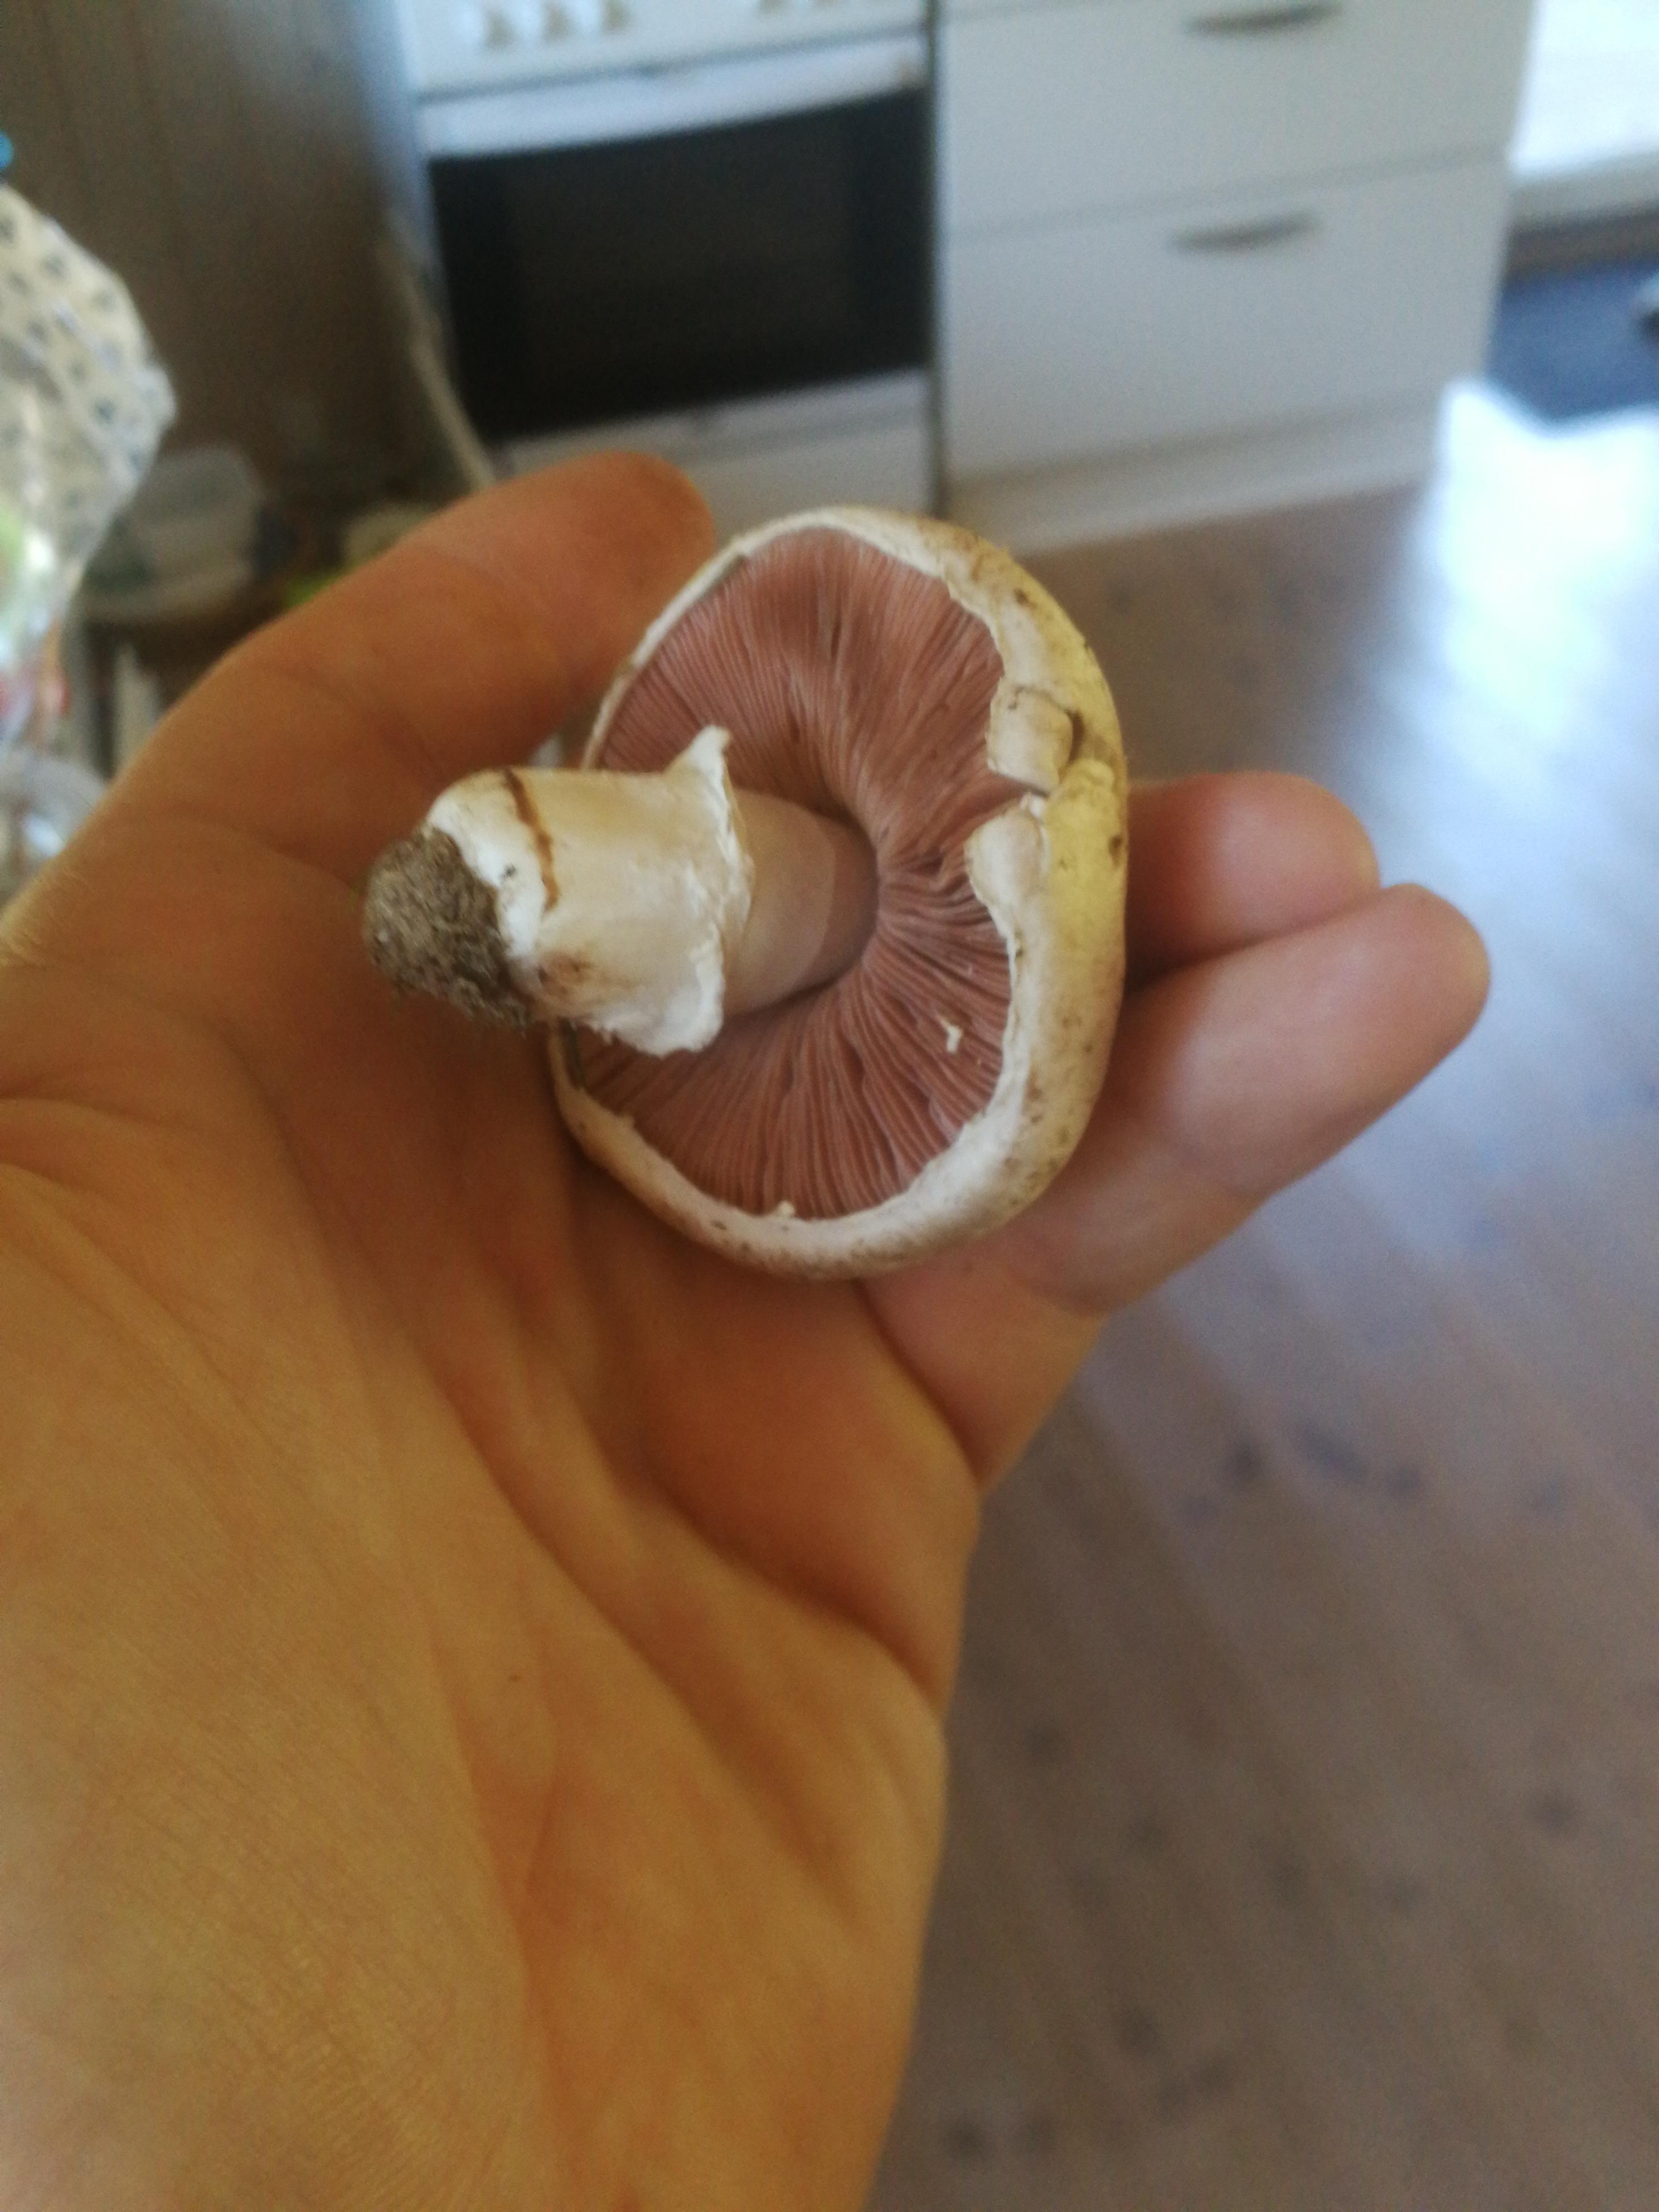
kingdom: Fungi
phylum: Basidiomycota
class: Agaricomycetes
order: Agaricales
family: Agaricaceae
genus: Agaricus
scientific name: Agaricus
